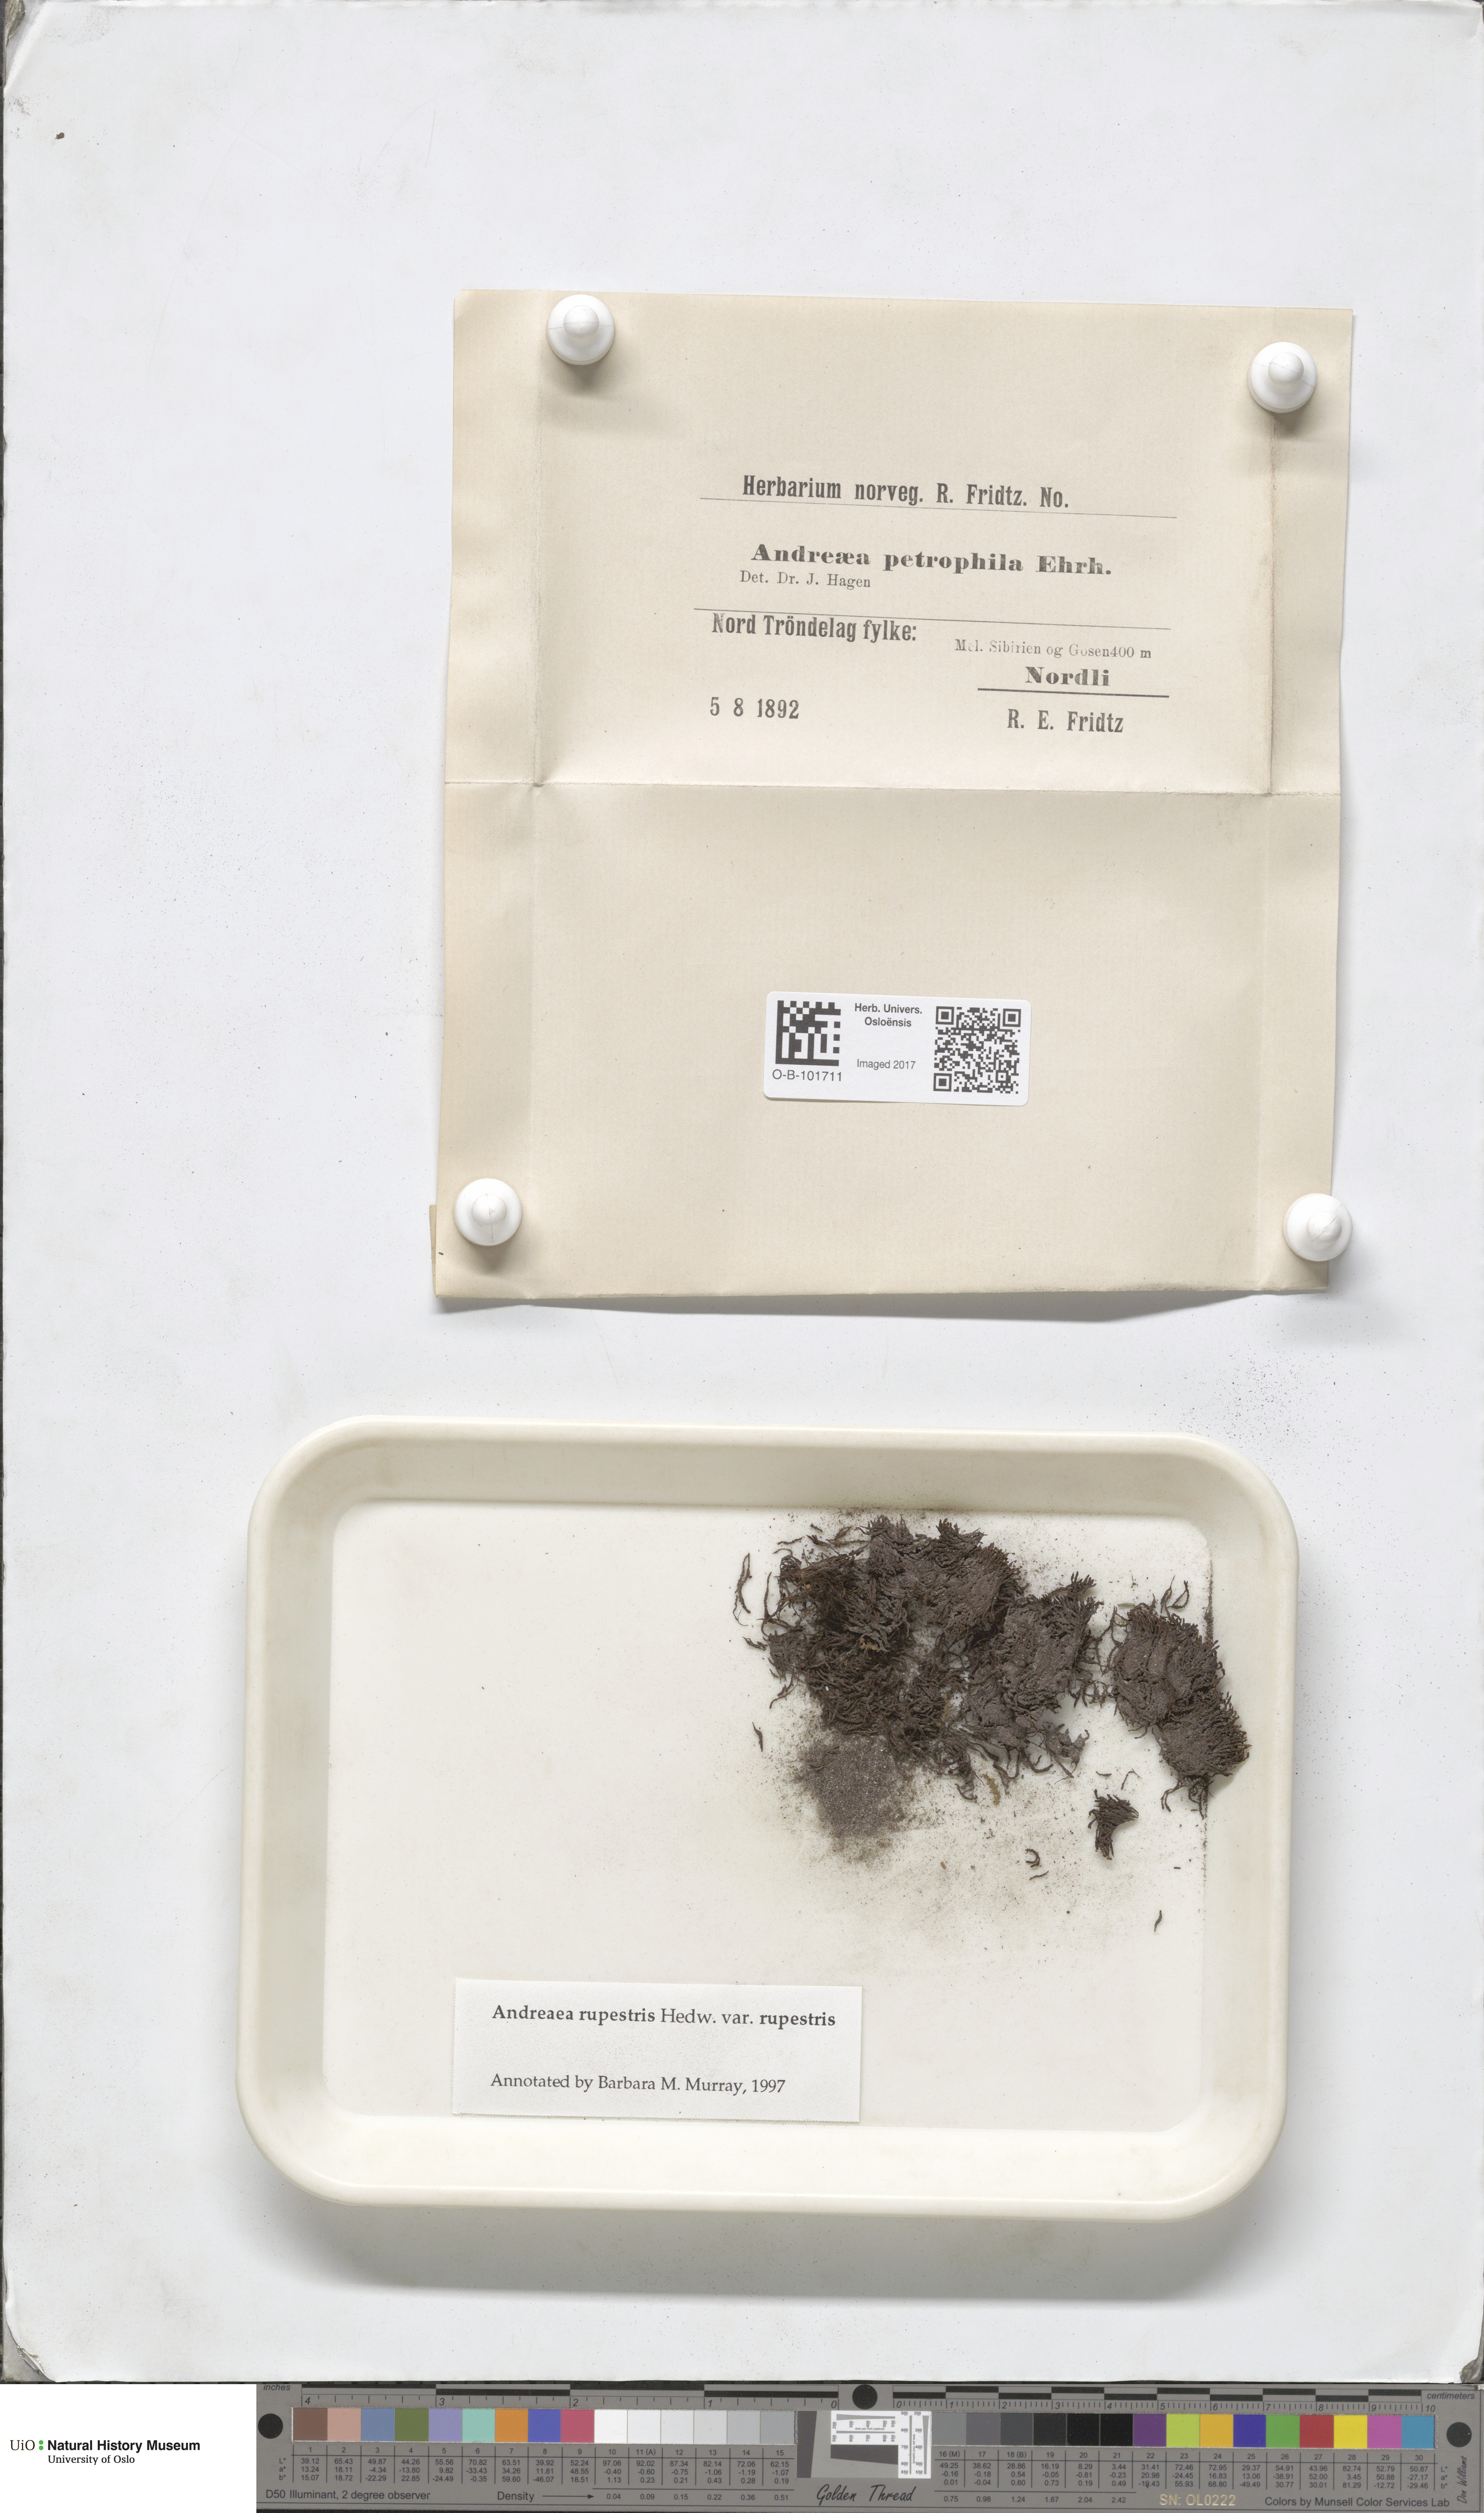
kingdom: Plantae
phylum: Bryophyta
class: Andreaeopsida
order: Andreaeales
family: Andreaeaceae
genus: Andreaea
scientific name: Andreaea rupestris
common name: Black rock moss
